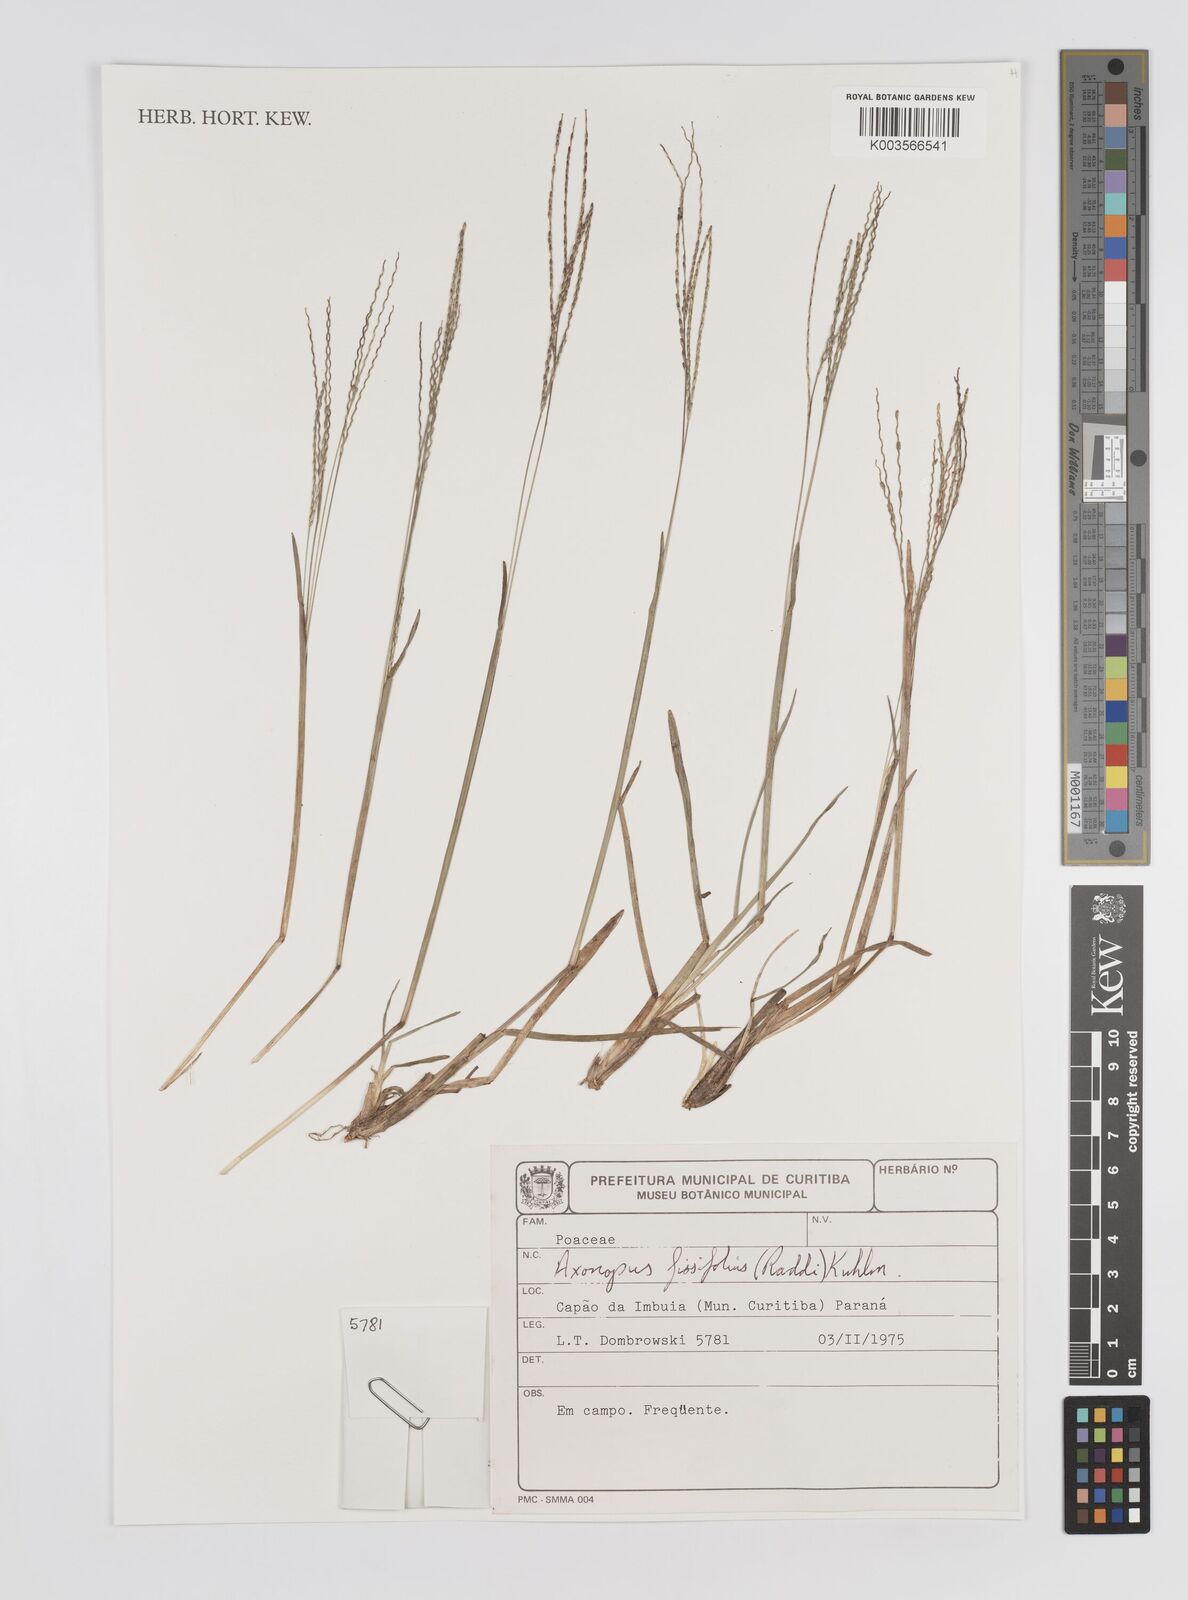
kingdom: Plantae
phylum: Tracheophyta
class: Liliopsida
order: Poales
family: Poaceae
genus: Axonopus
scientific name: Axonopus fissifolius
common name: Common carpetgrass
